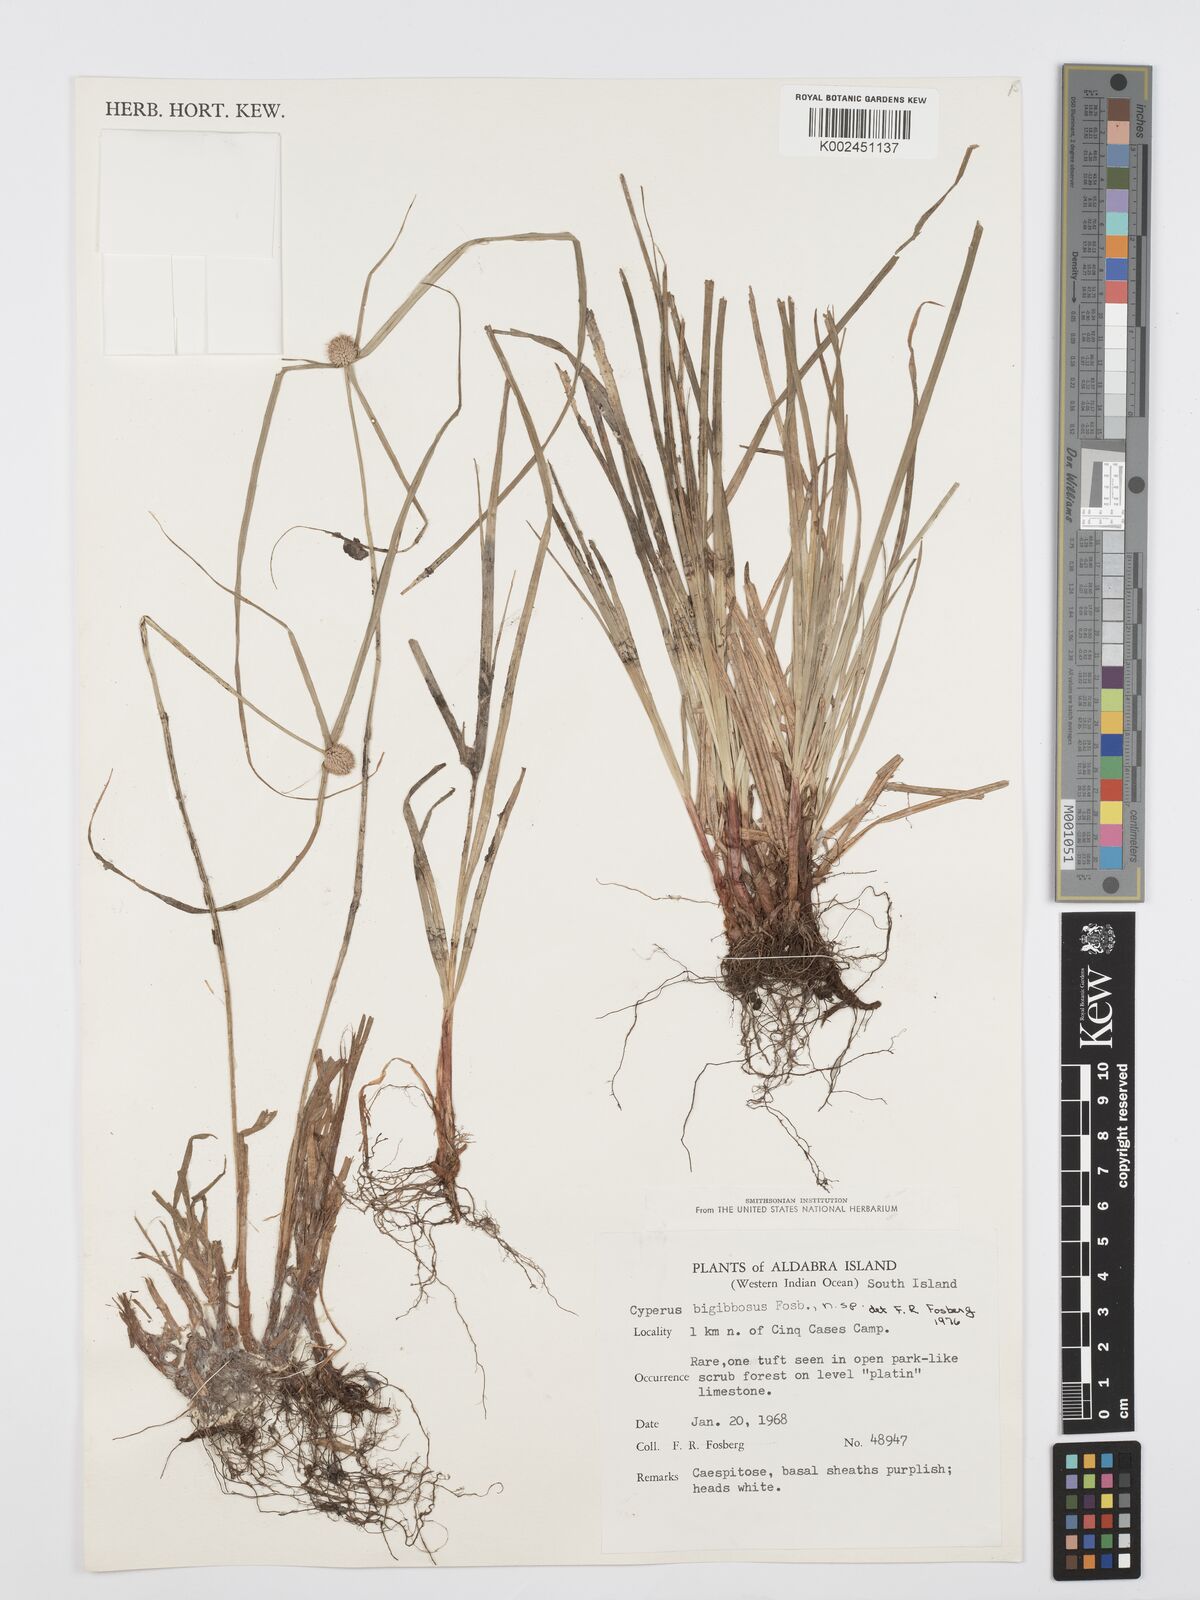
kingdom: Plantae
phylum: Tracheophyta
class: Liliopsida
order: Poales
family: Cyperaceae
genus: Cyperus
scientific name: Cyperus bigibbosa
